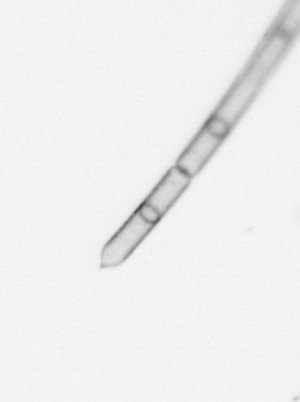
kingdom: Chromista
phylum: Ochrophyta
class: Bacillariophyceae
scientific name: Bacillariophyceae
